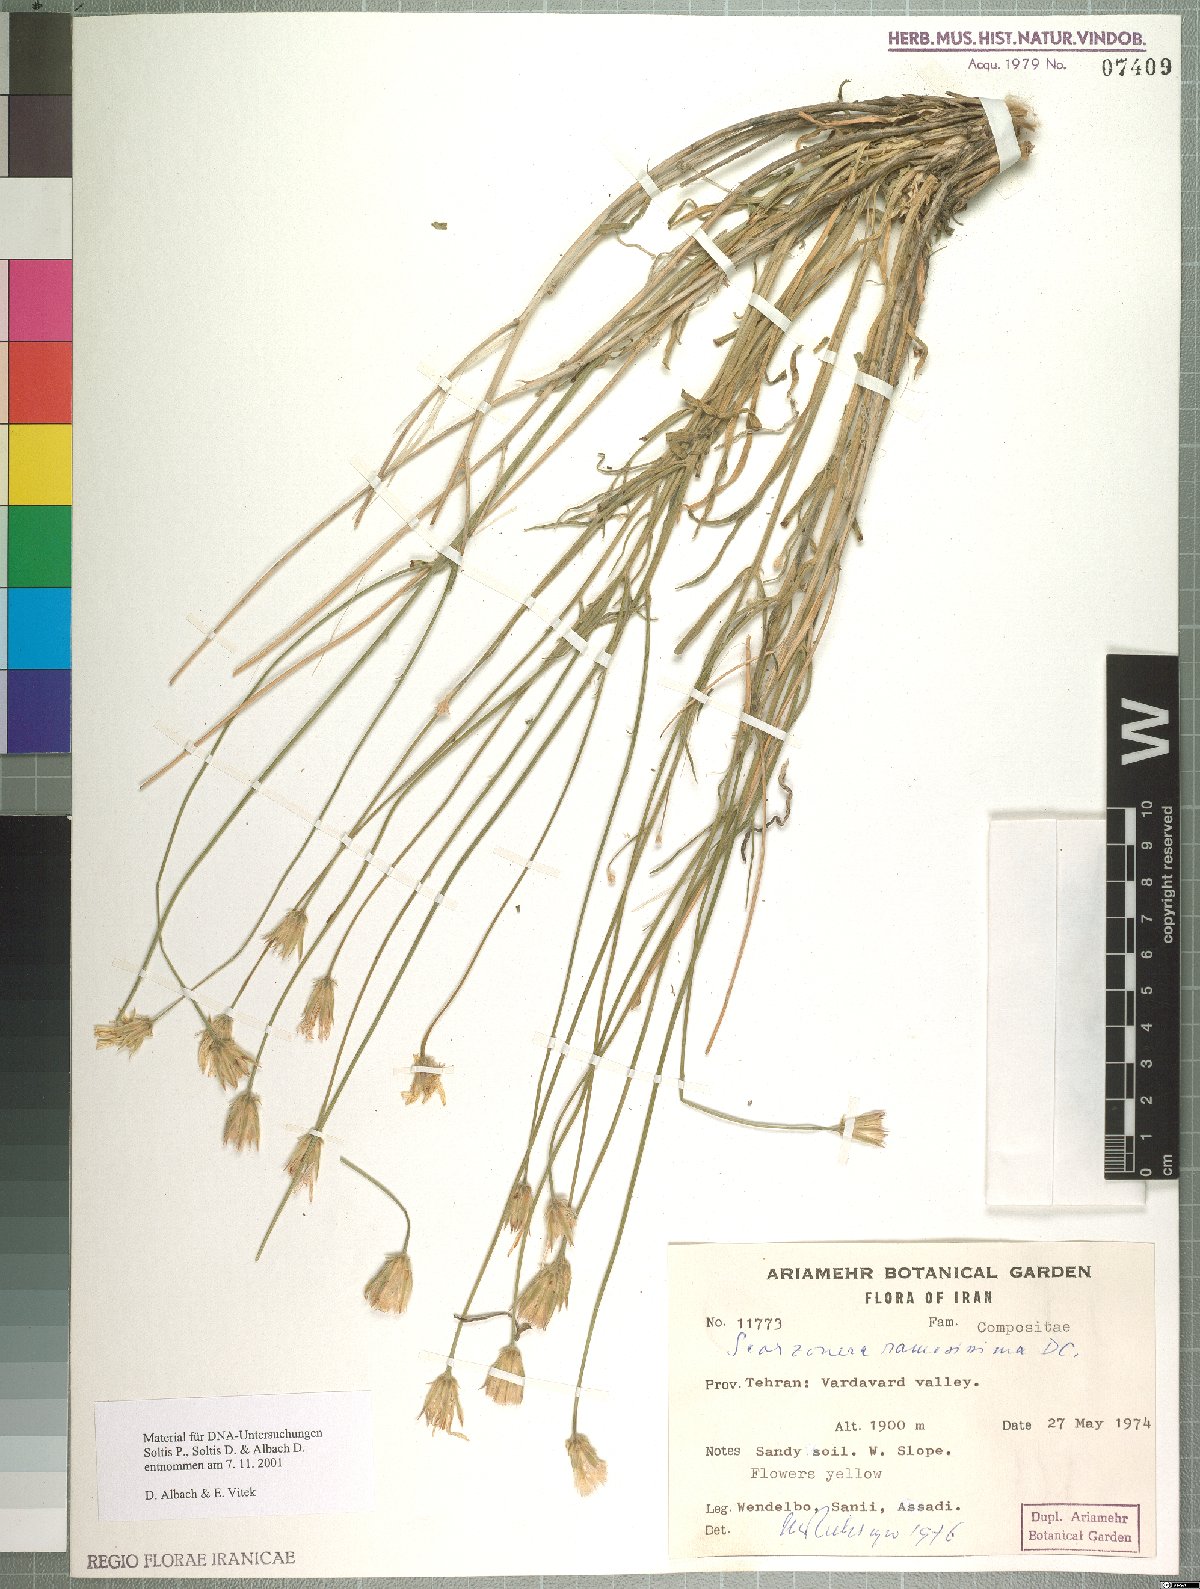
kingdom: Plantae
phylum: Tracheophyta
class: Magnoliopsida
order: Asterales
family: Asteraceae
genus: Gelasia
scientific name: Gelasia ramosissima
